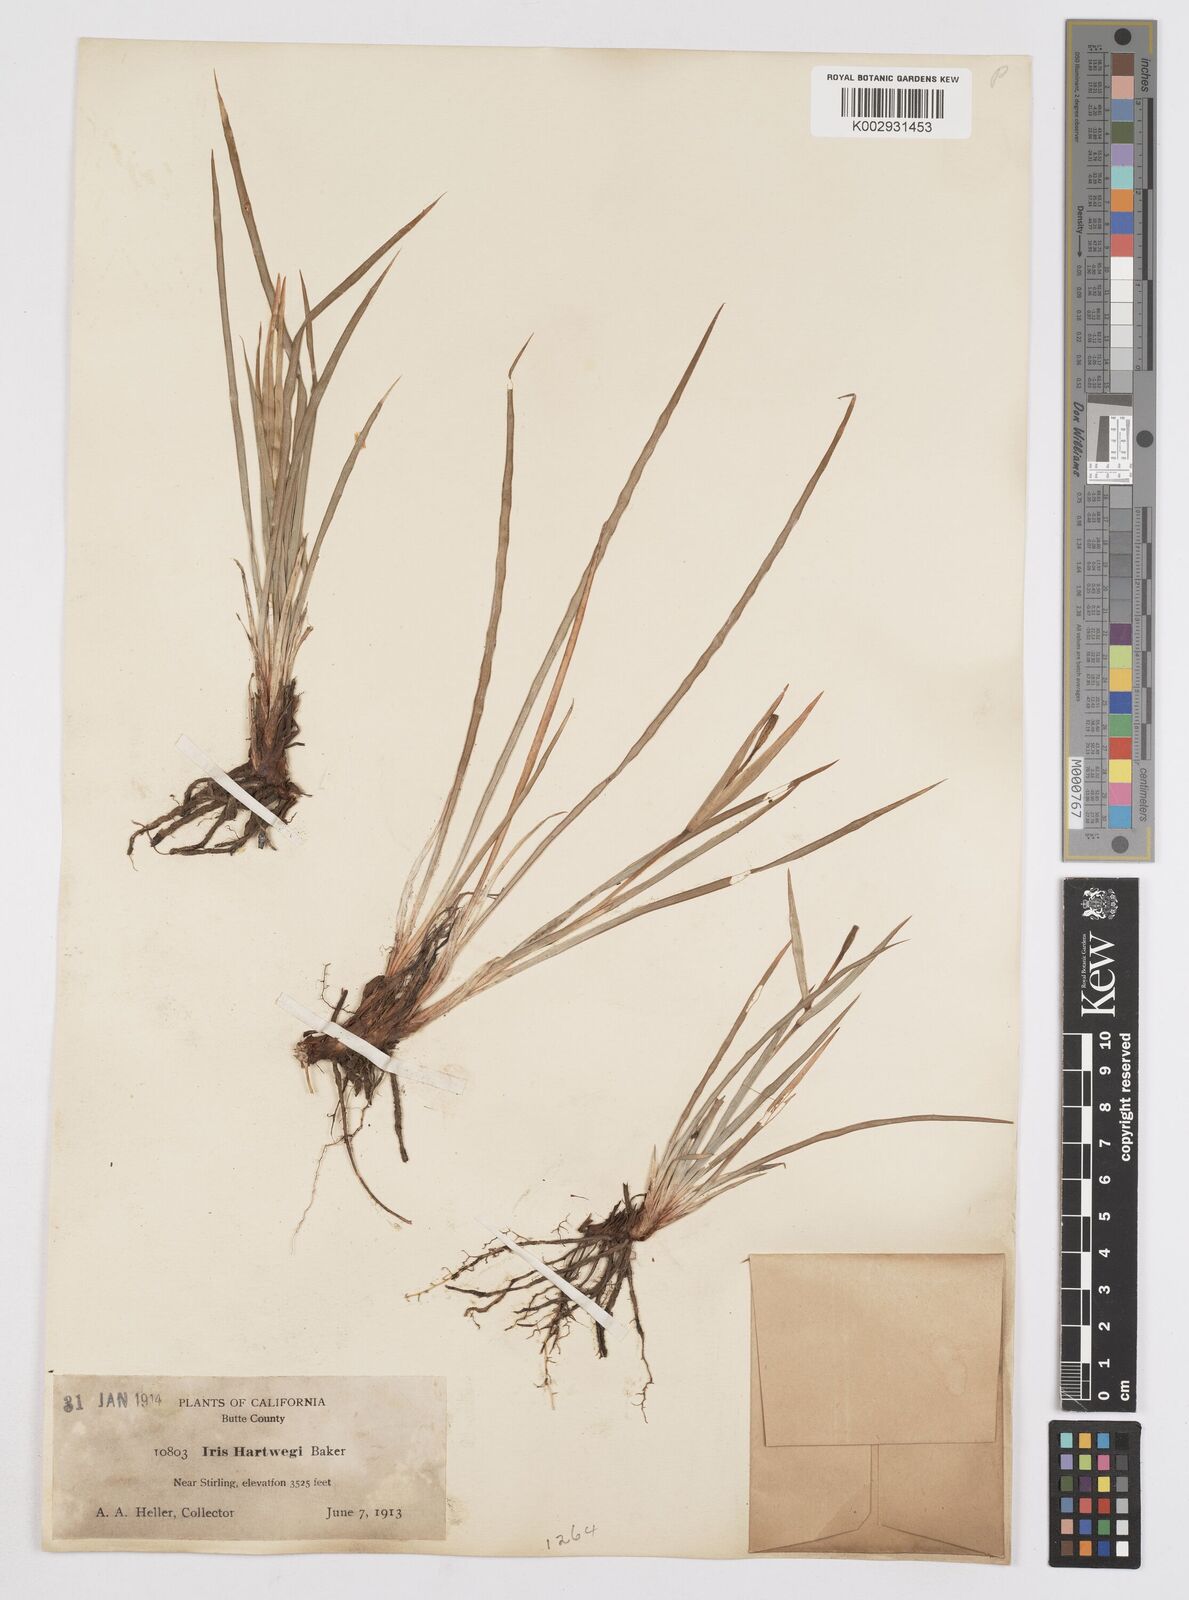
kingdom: Plantae
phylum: Tracheophyta
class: Liliopsida
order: Asparagales
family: Iridaceae
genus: Iris
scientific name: Iris hartwegii
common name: Sierra iris
